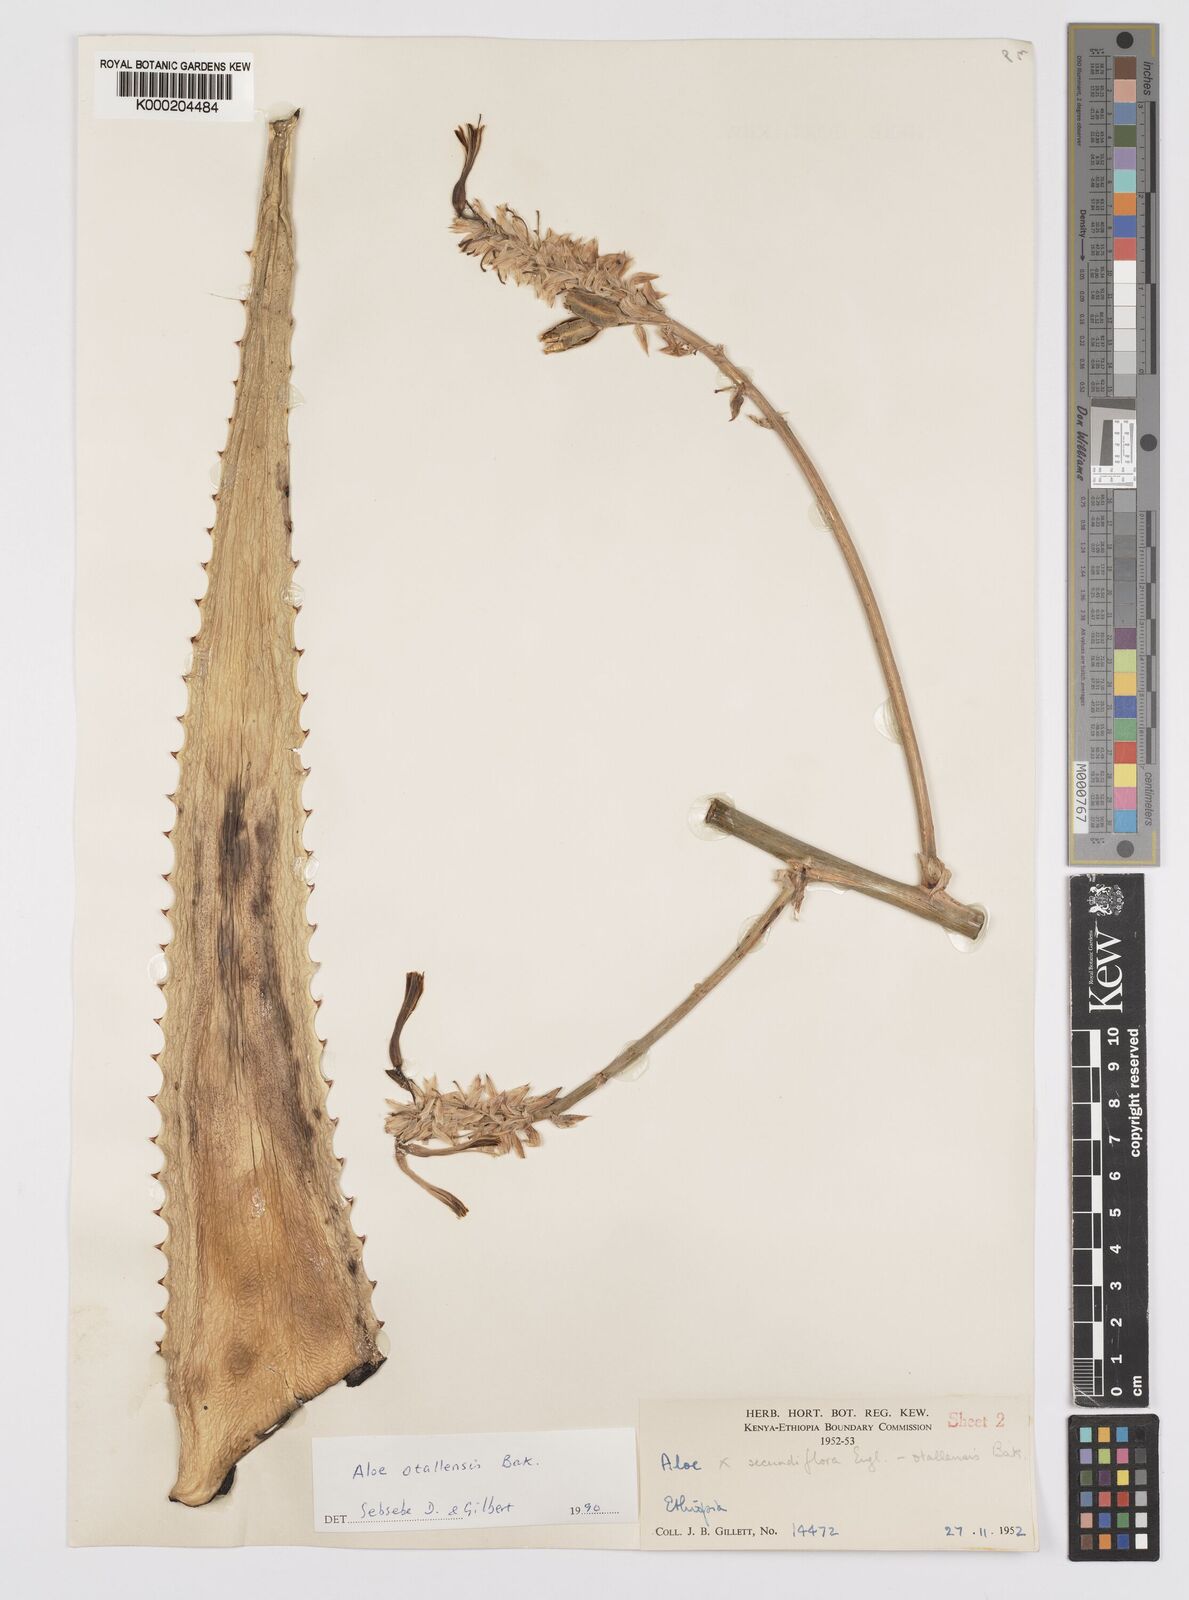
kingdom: Plantae
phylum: Tracheophyta
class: Liliopsida
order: Asparagales
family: Asphodelaceae
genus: Aloe
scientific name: Aloe otallensis
